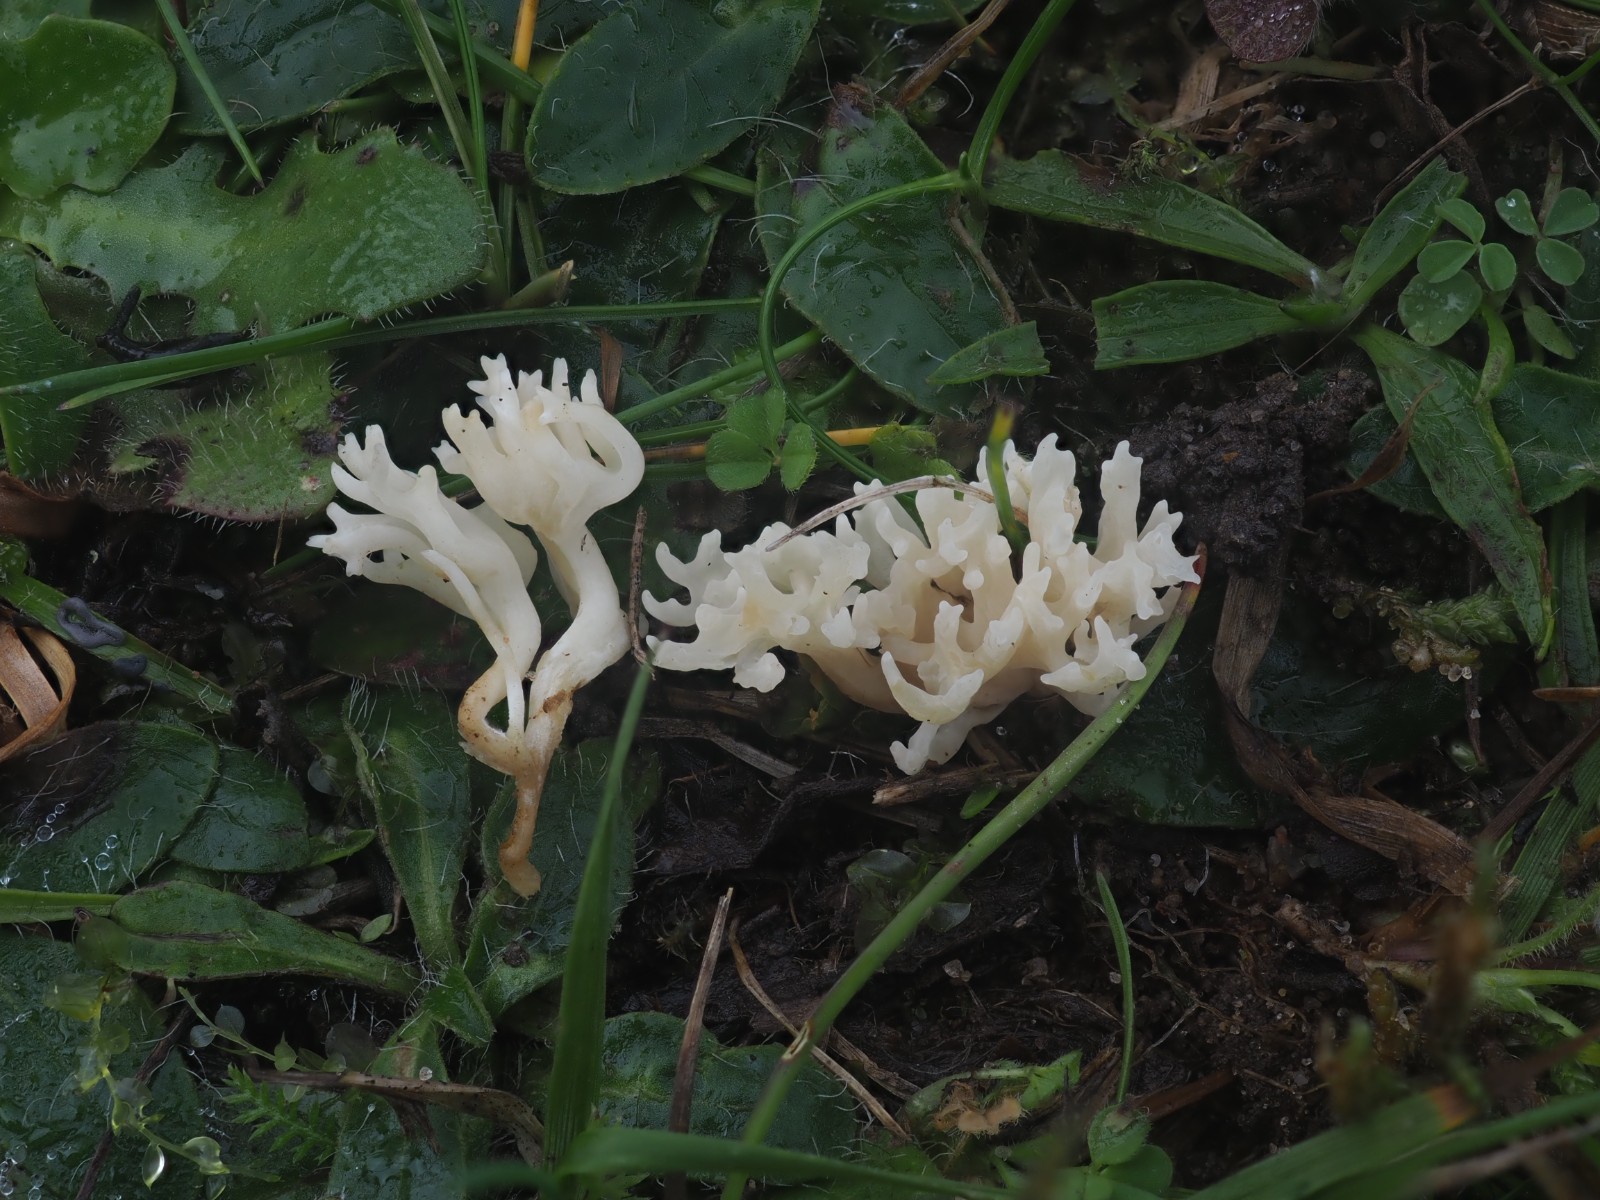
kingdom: Fungi
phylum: Basidiomycota
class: Agaricomycetes
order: Agaricales
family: Clavariaceae
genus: Ramariopsis
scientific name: Ramariopsis
